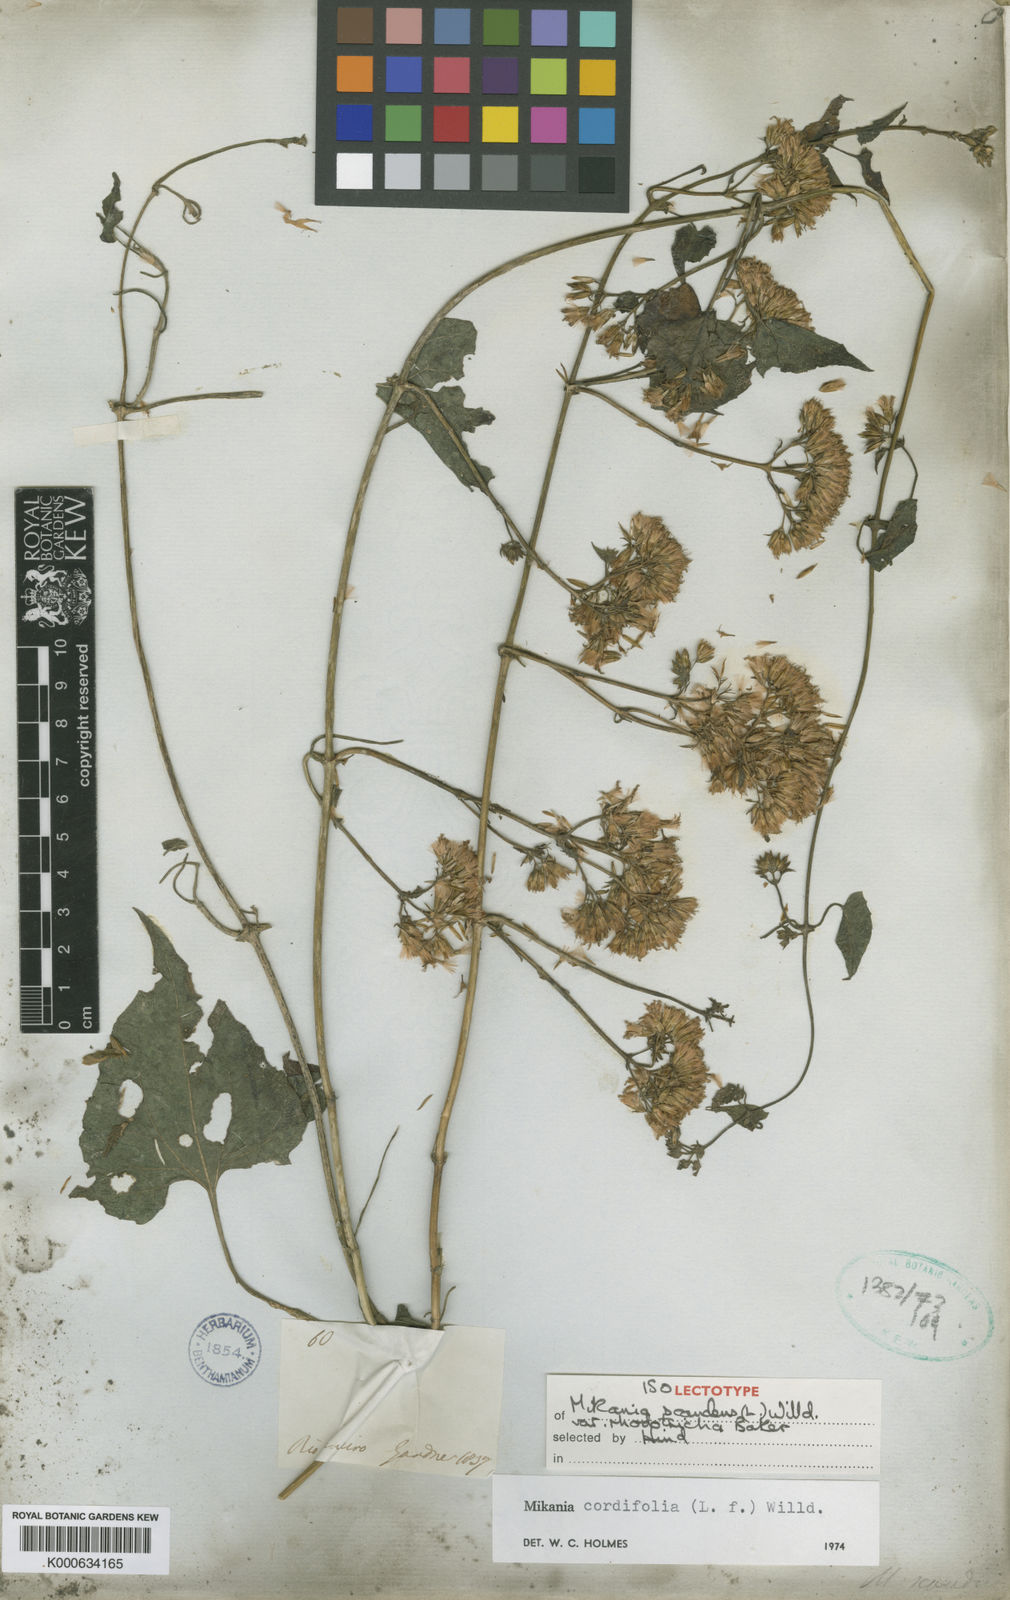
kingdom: Plantae
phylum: Tracheophyta
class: Magnoliopsida
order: Asterales
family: Asteraceae
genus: Mikania
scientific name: Mikania cordifolia
